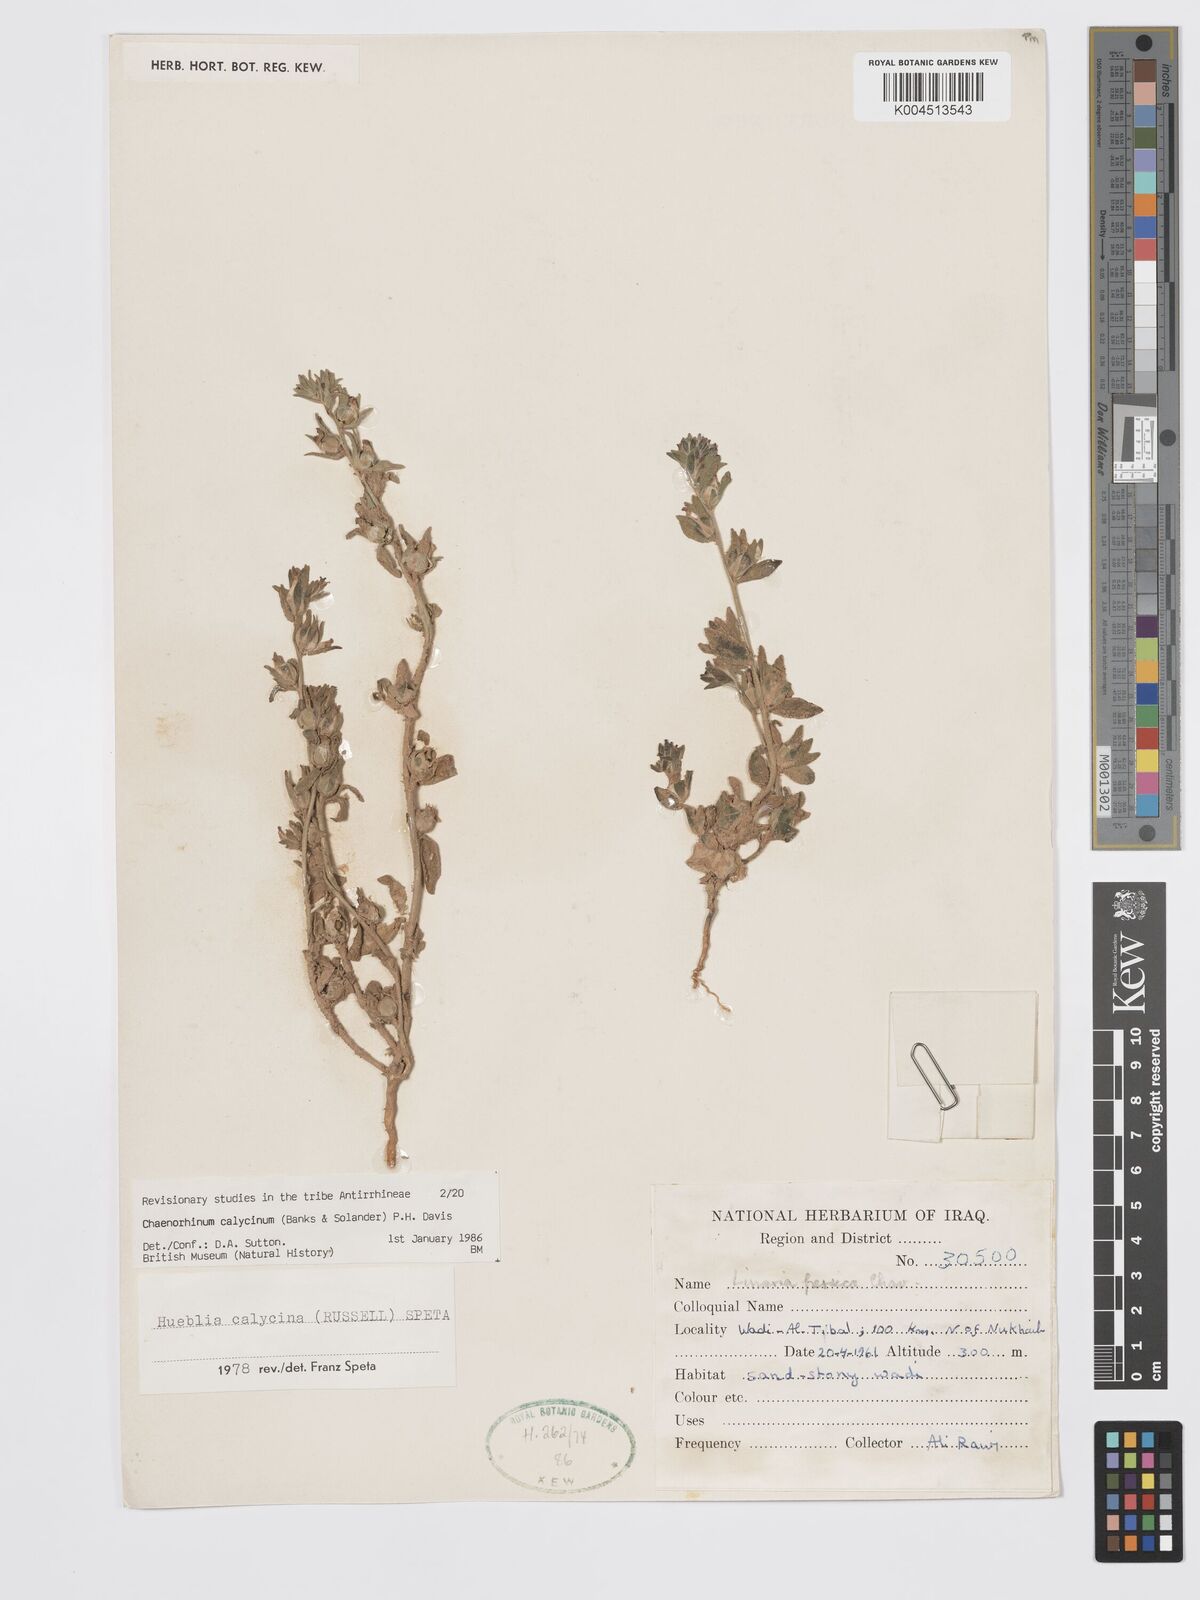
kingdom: Plantae
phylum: Tracheophyta
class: Magnoliopsida
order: Lamiales
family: Plantaginaceae
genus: Chaenorhinum
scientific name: Chaenorhinum calycinum
